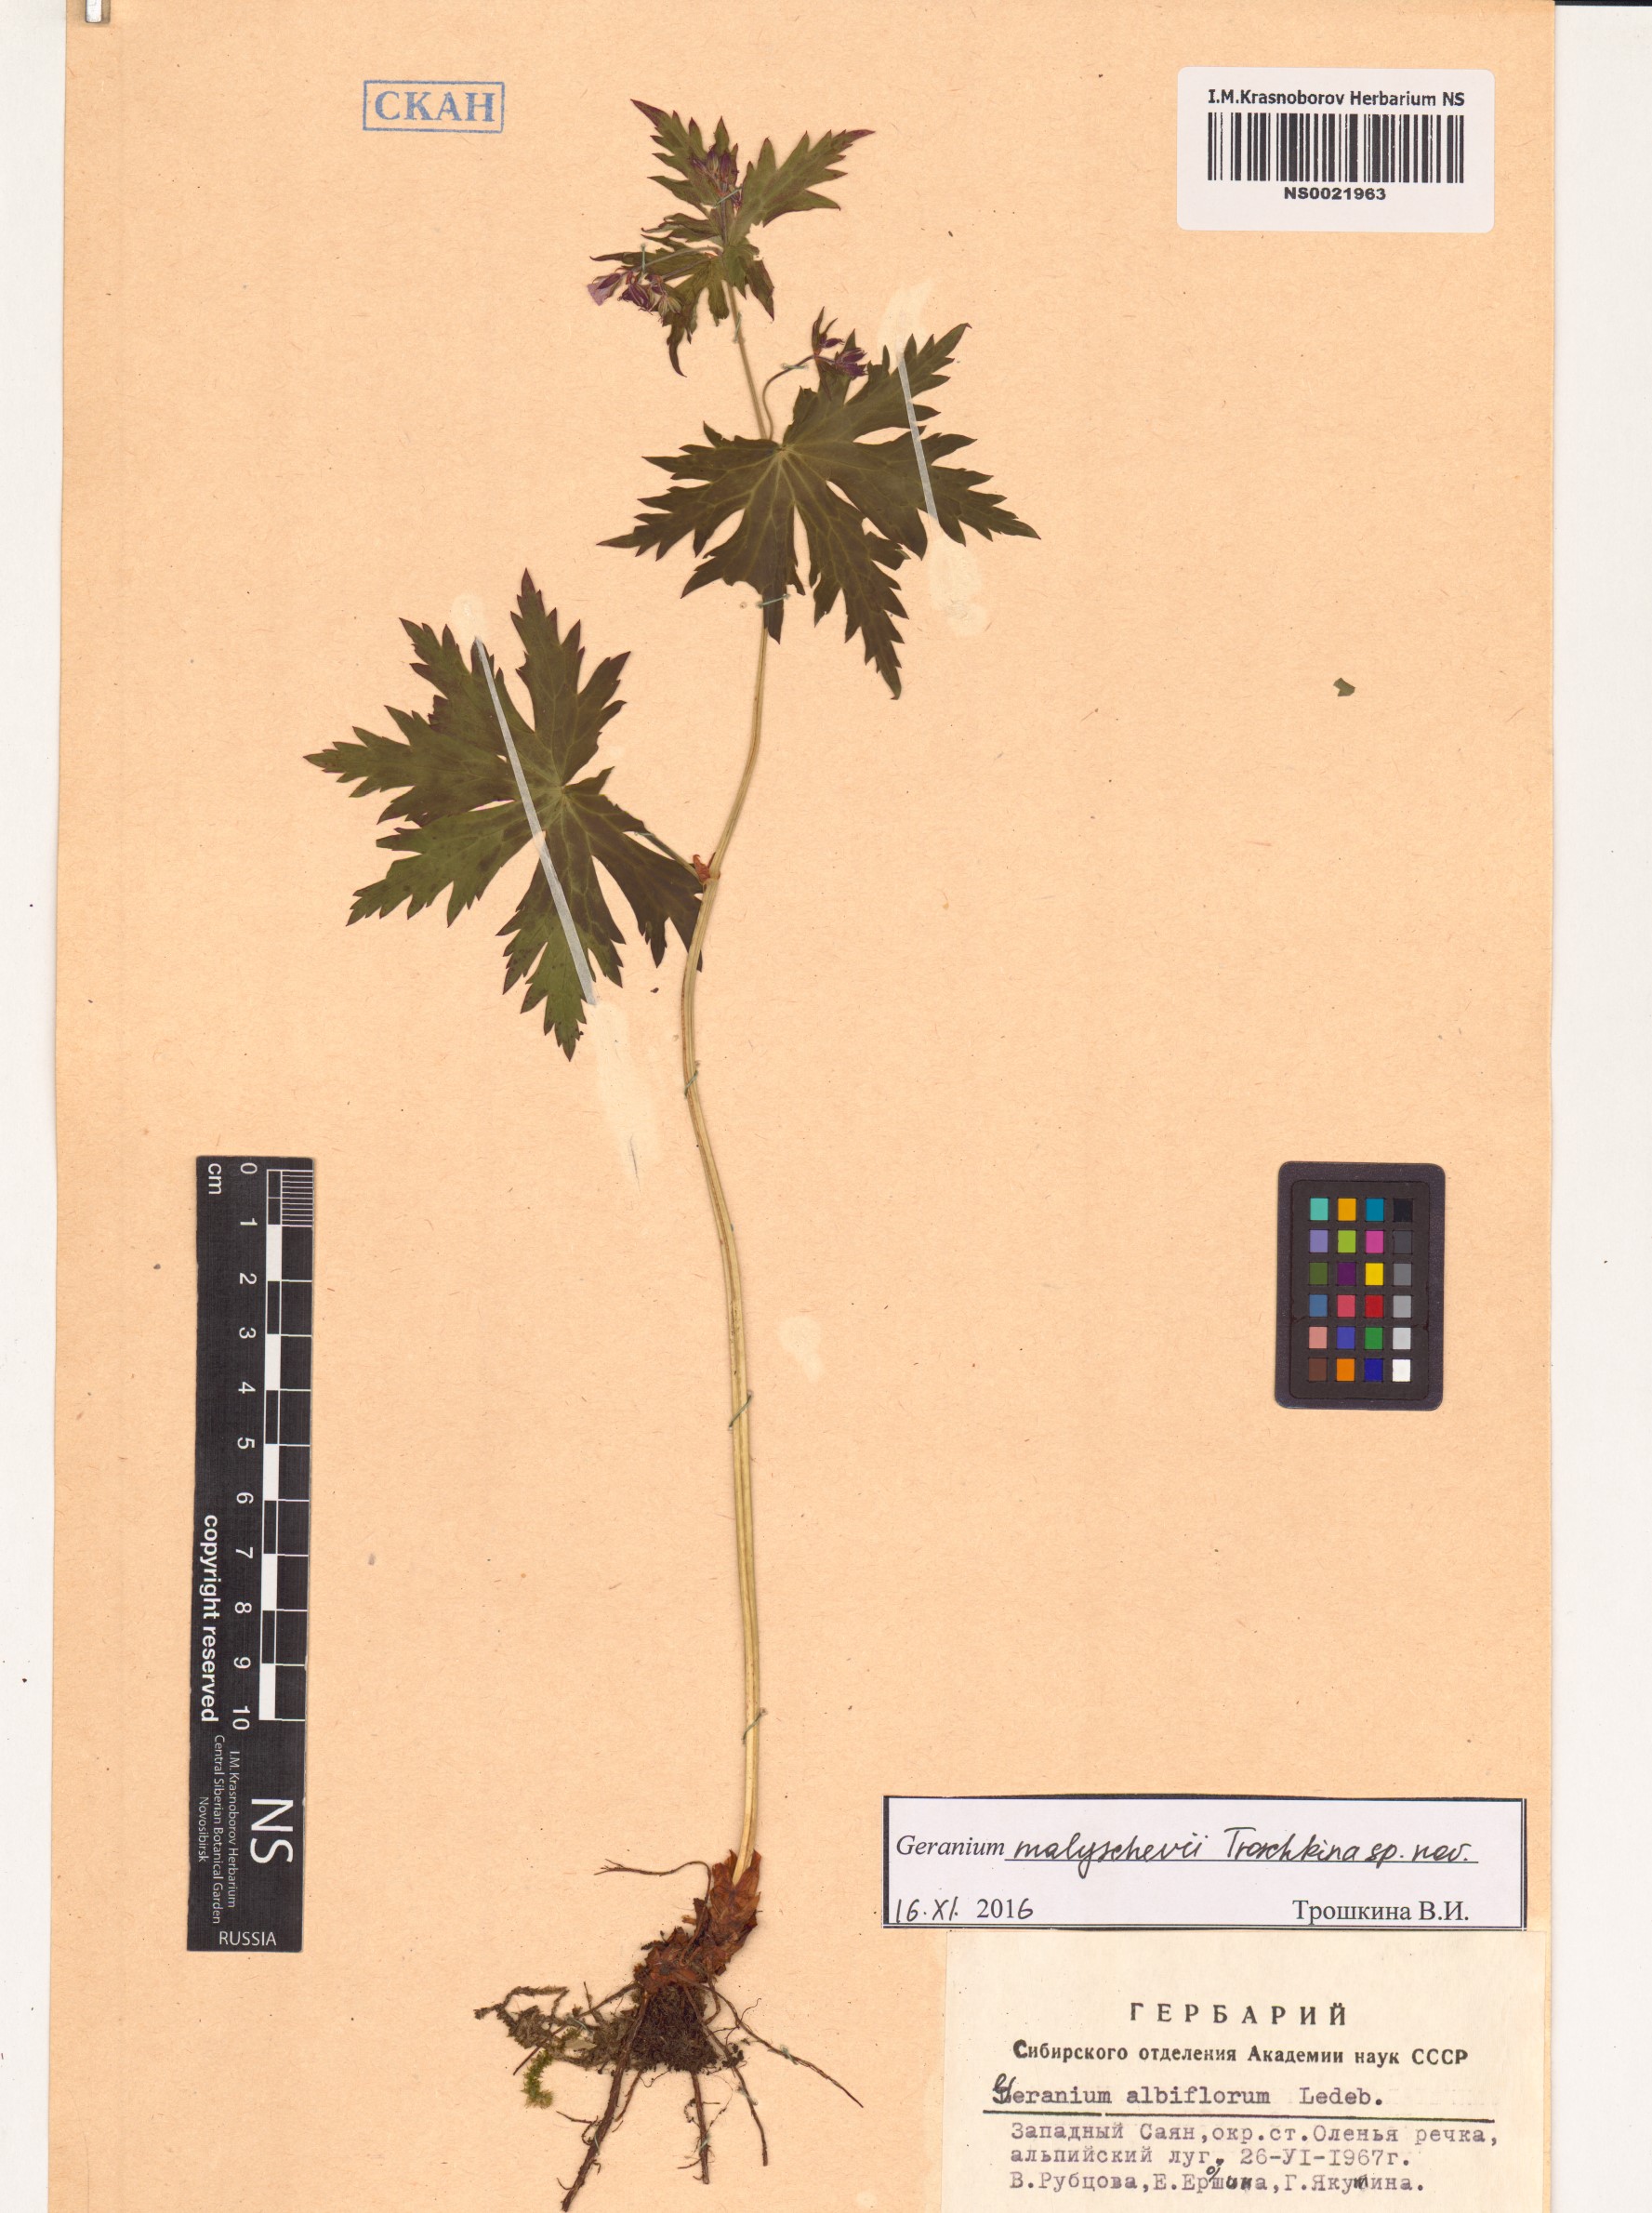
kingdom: Plantae
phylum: Tracheophyta
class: Magnoliopsida
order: Geraniales
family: Geraniaceae
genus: Geranium
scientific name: Geranium malyschevii
